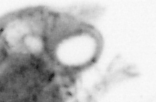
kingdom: Animalia
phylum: Arthropoda
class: Copepoda
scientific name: Copepoda
